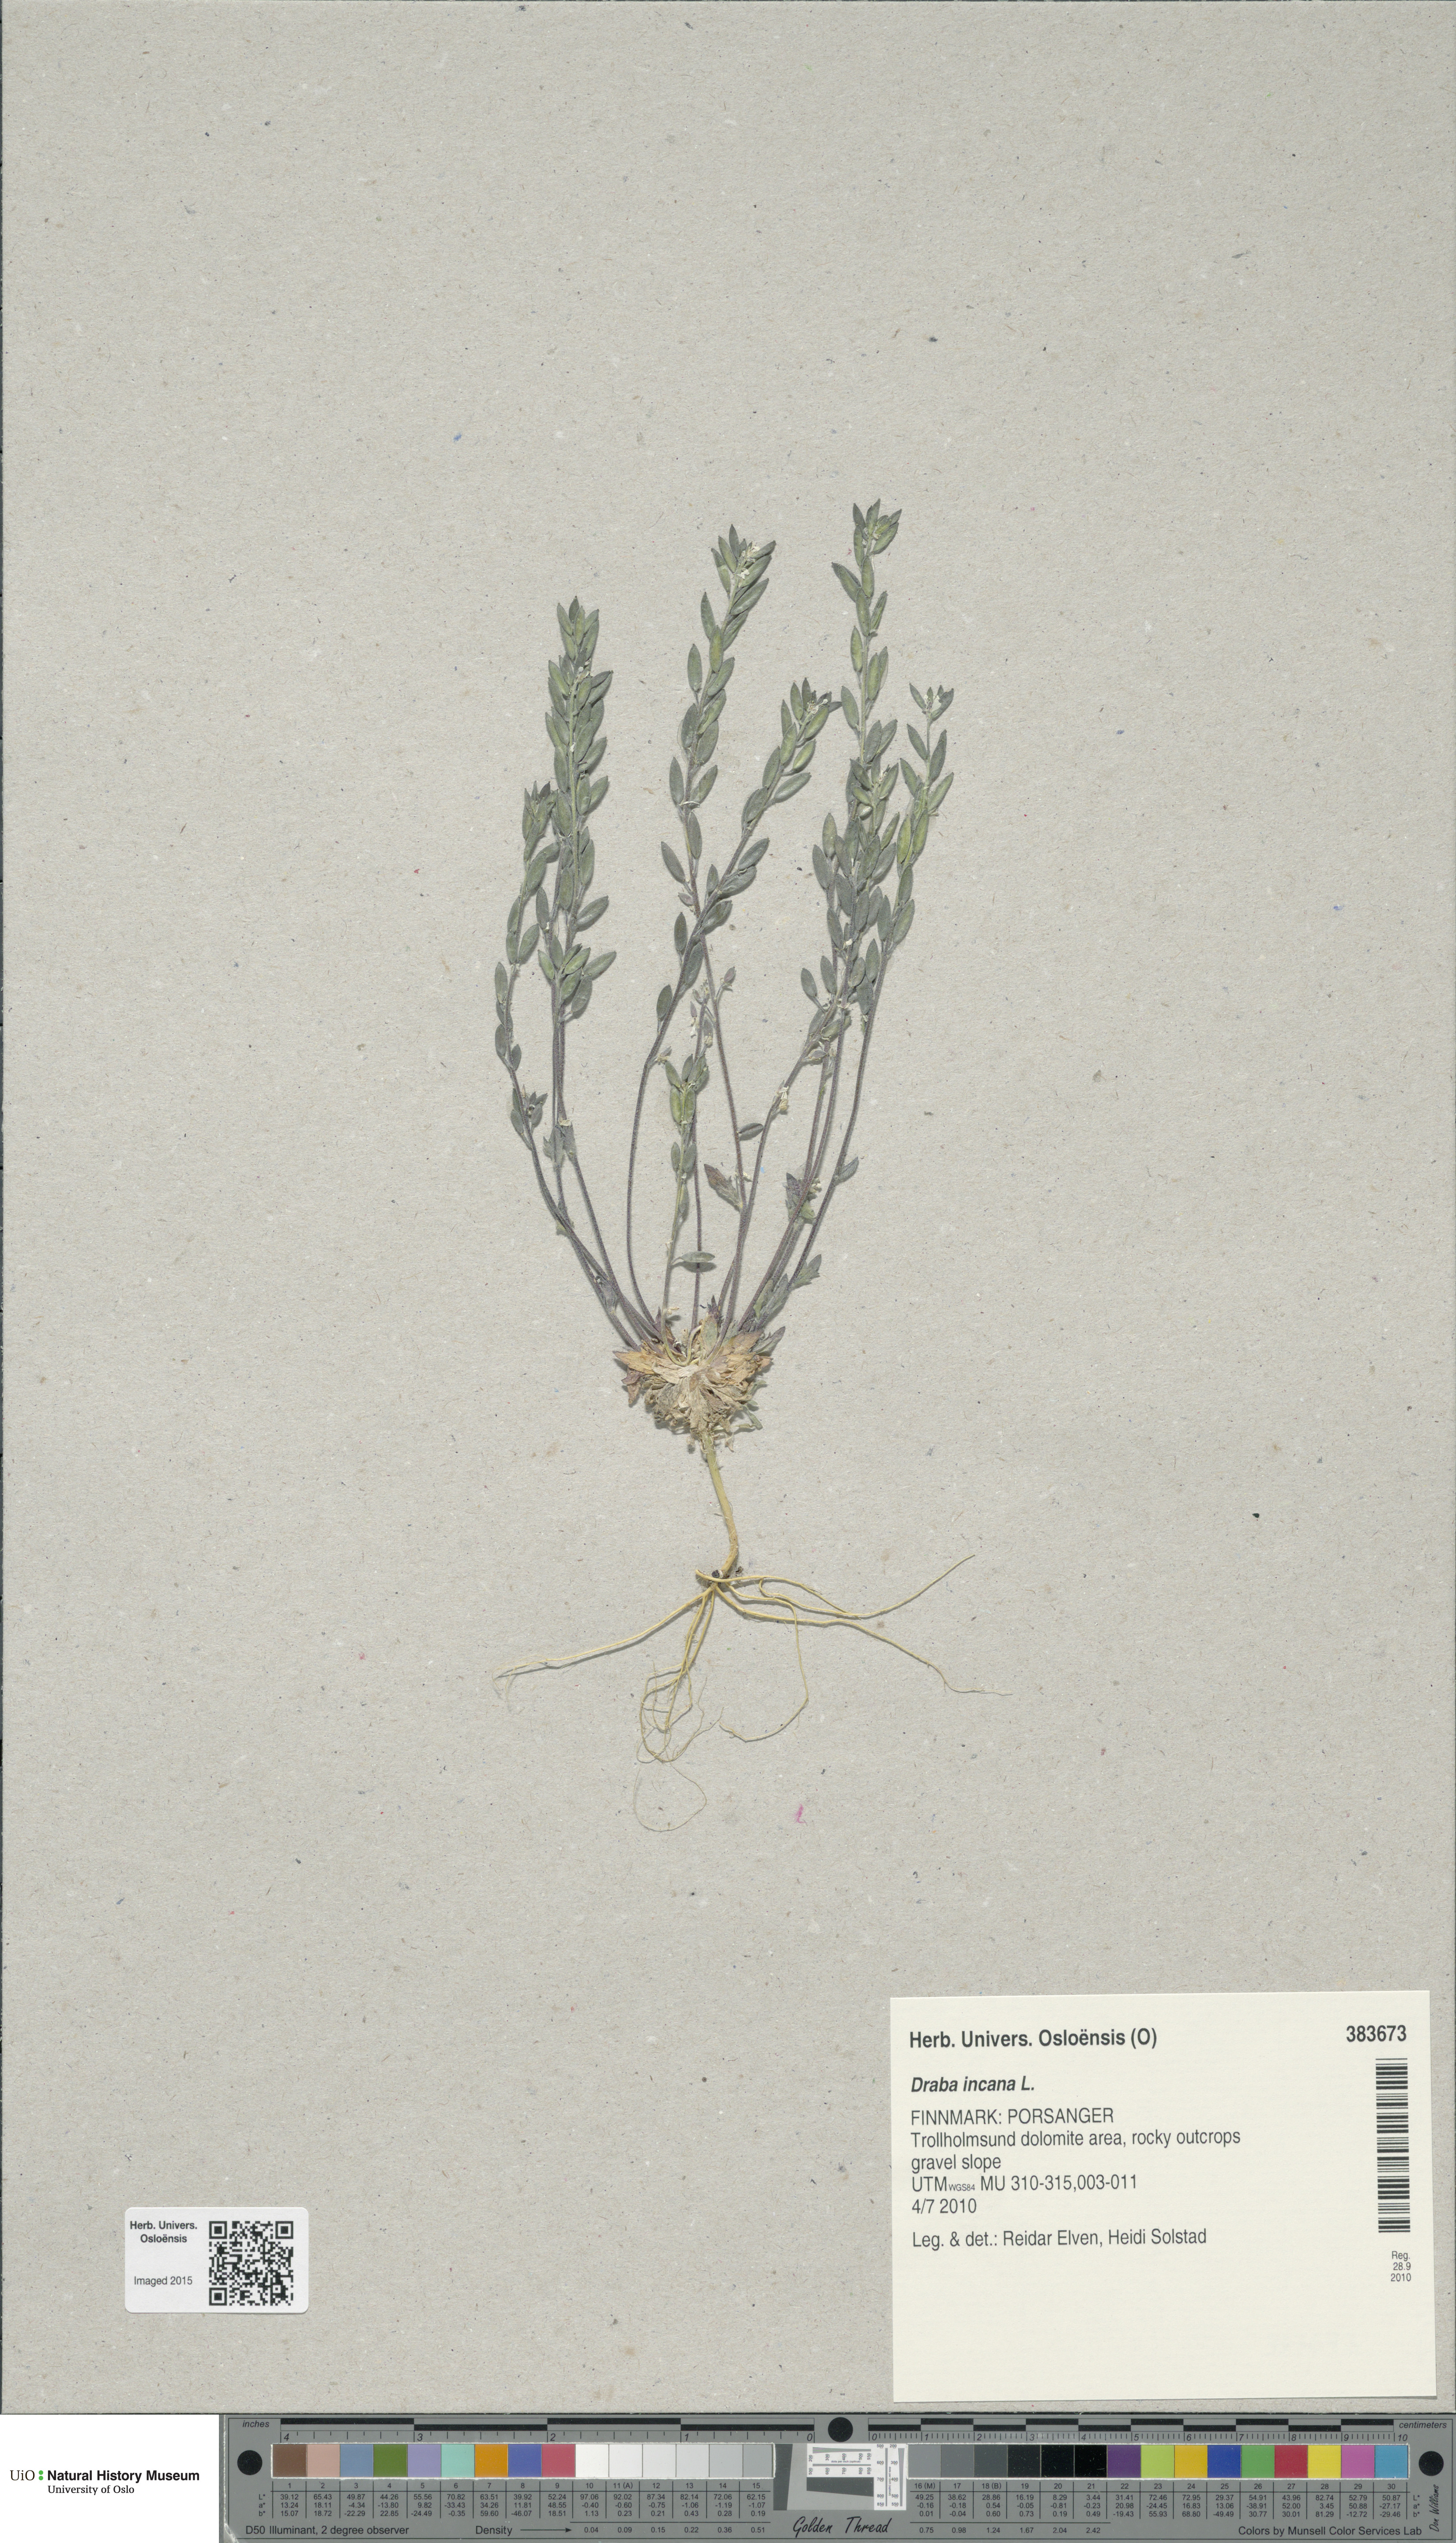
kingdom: Plantae
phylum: Tracheophyta
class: Magnoliopsida
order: Brassicales
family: Brassicaceae
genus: Draba
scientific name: Draba incana
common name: Hoary whitlow-grass
